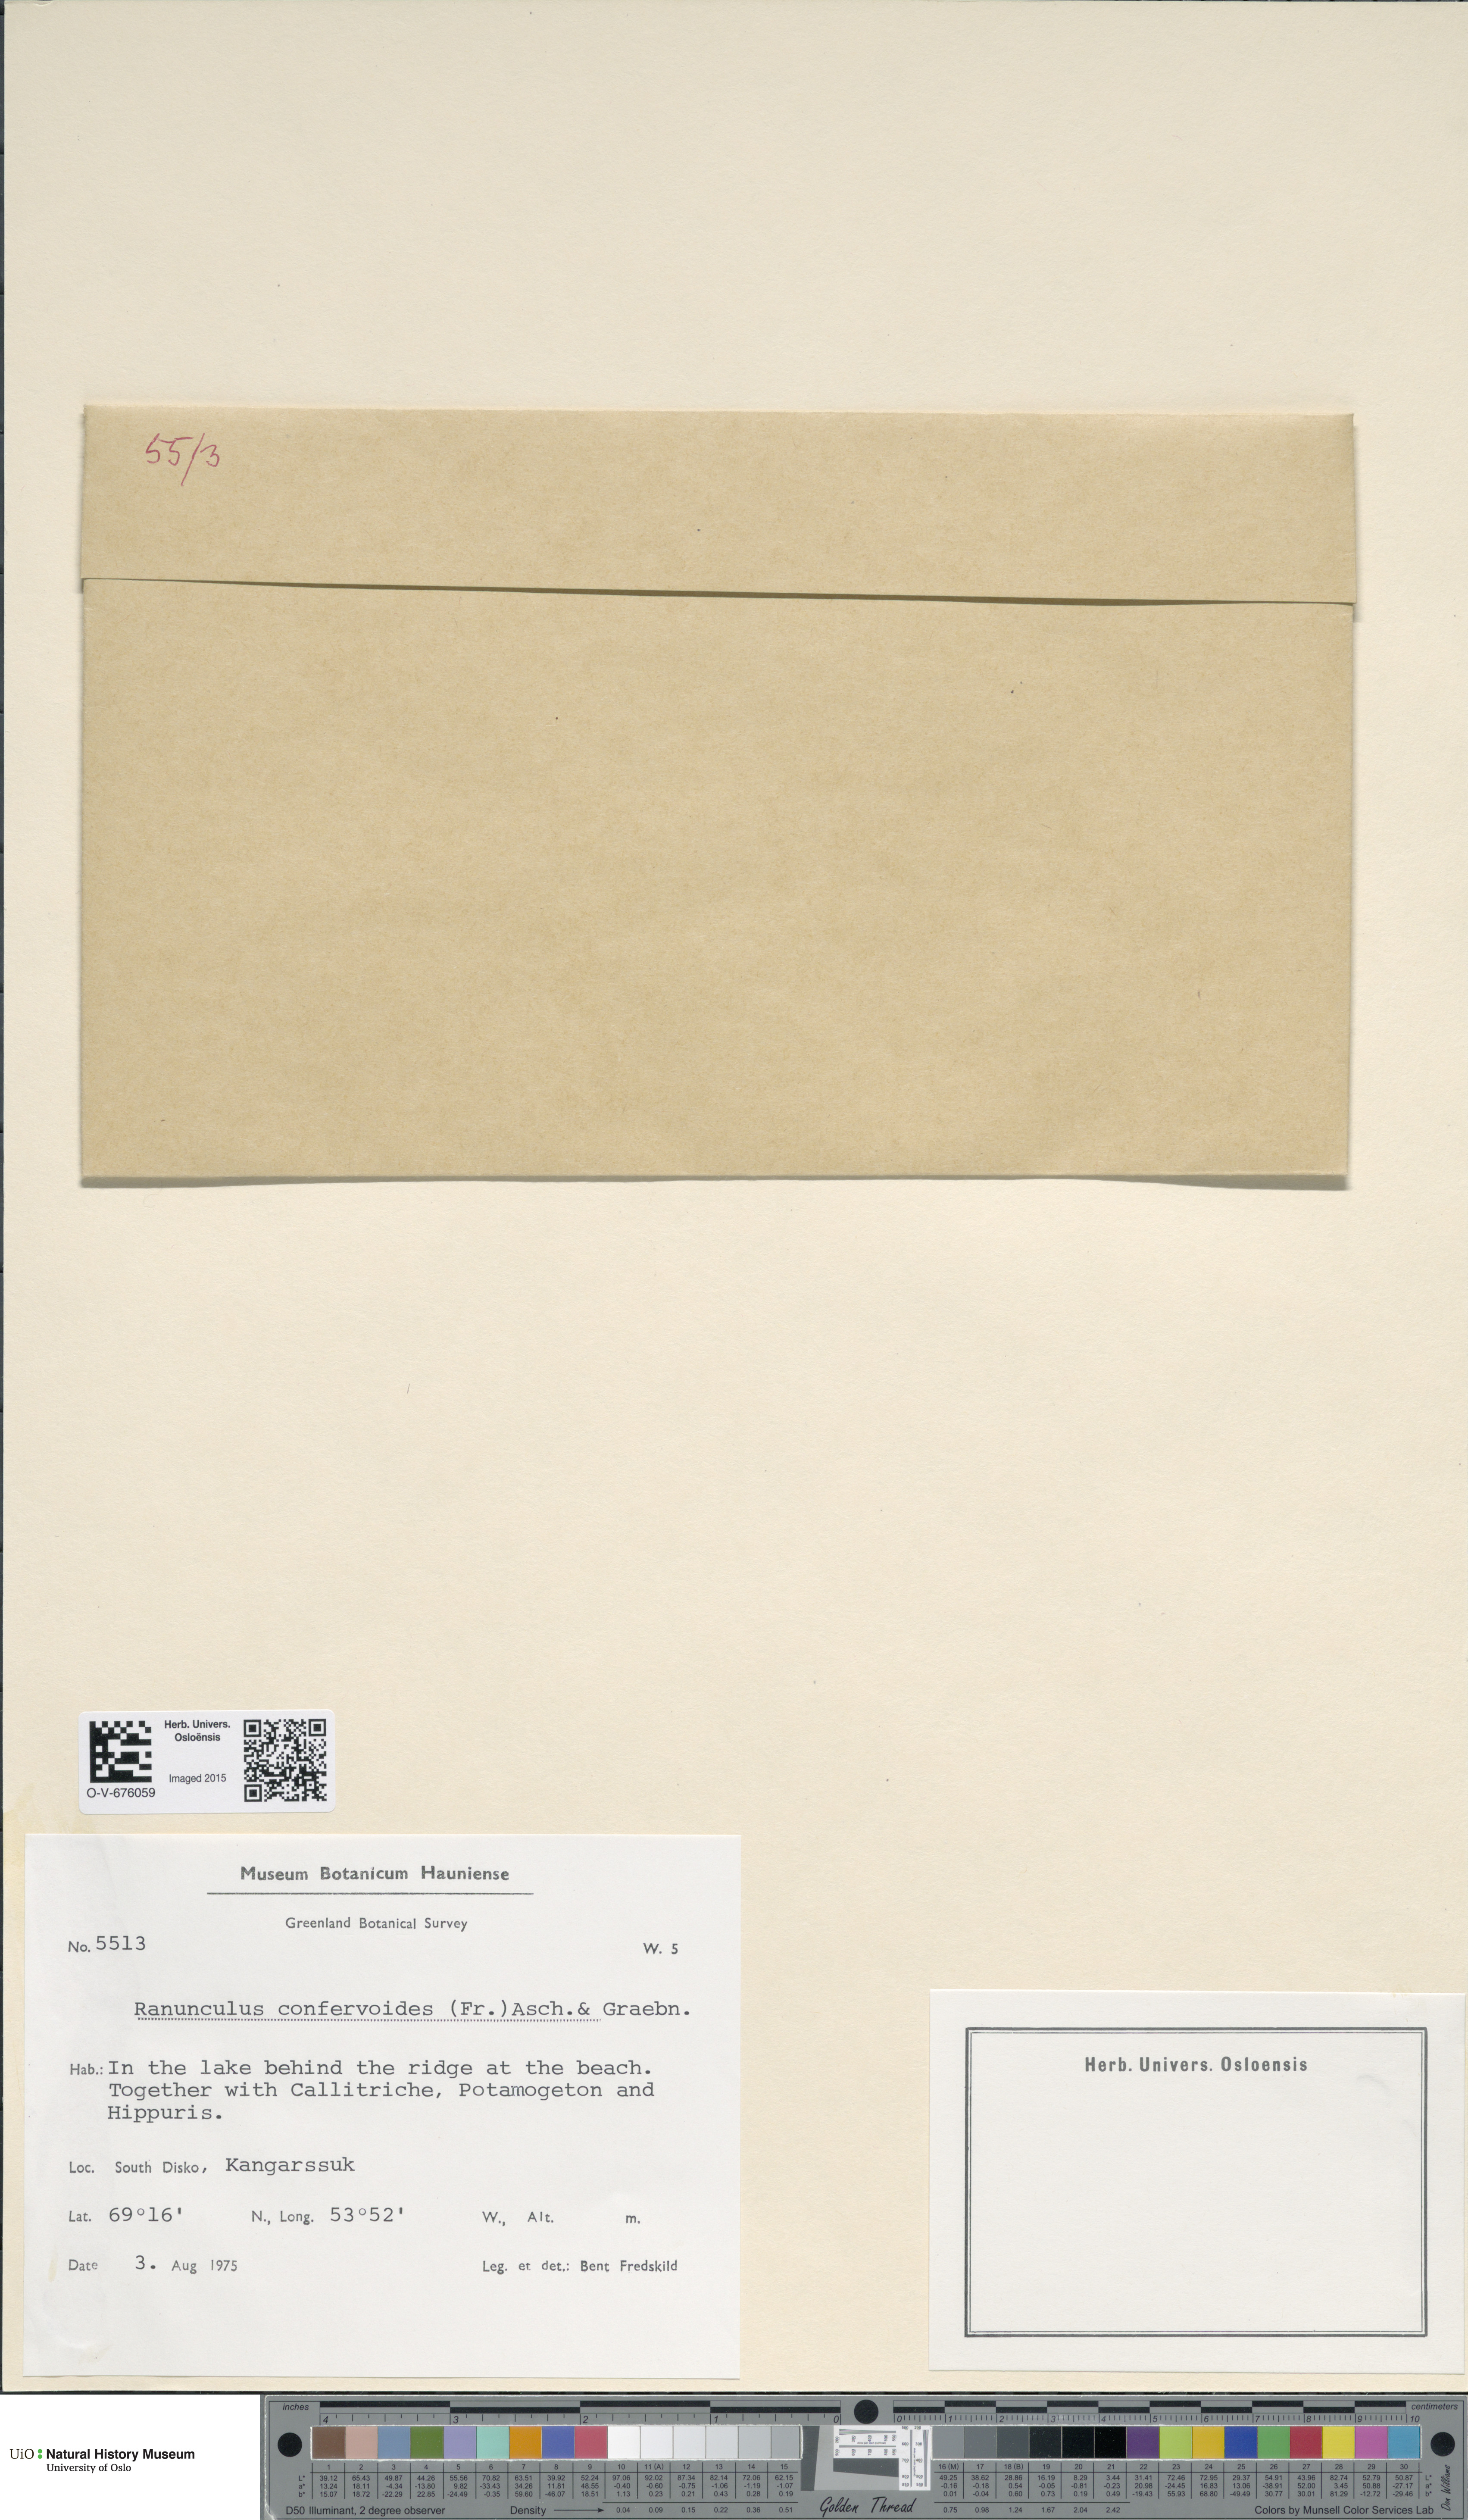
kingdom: Plantae
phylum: Tracheophyta
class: Magnoliopsida
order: Ranunculales
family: Ranunculaceae
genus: Ranunculus
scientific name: Ranunculus confervoides
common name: Delicate buttercup
